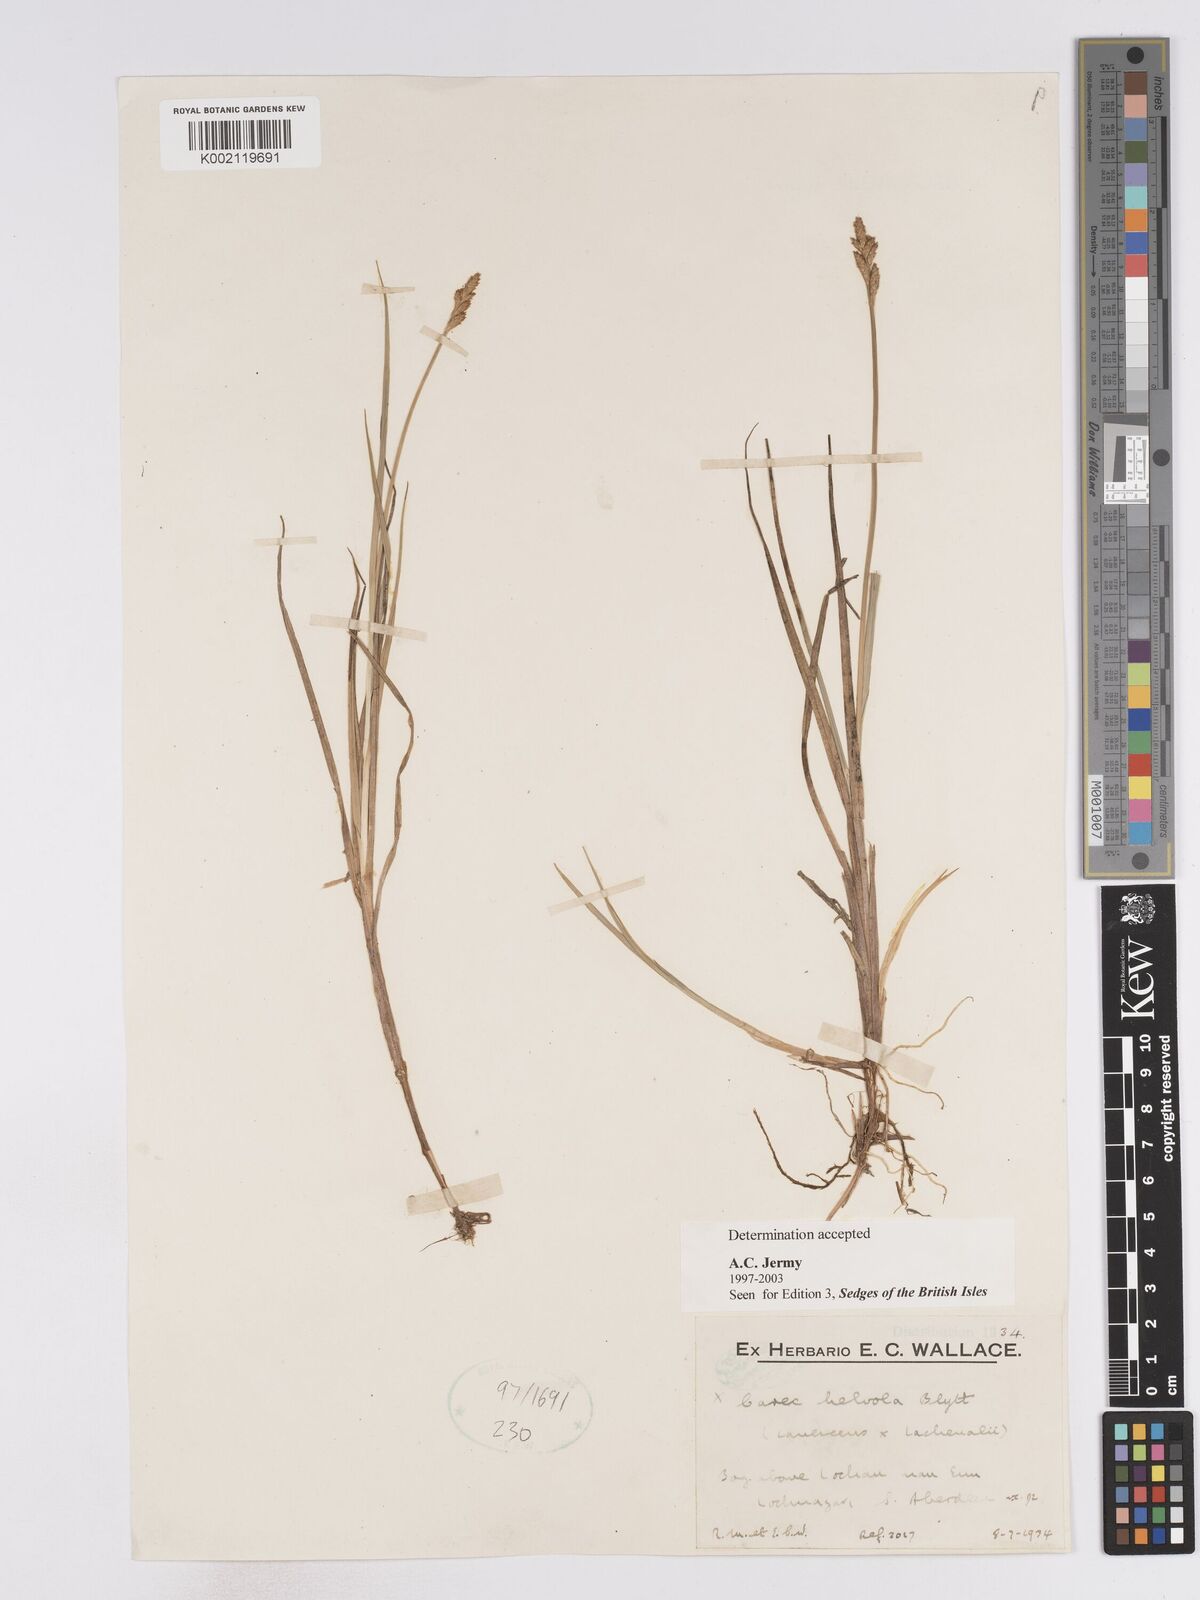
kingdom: Plantae
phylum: Tracheophyta
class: Liliopsida
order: Poales
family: Cyperaceae
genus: Carex
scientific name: Carex
